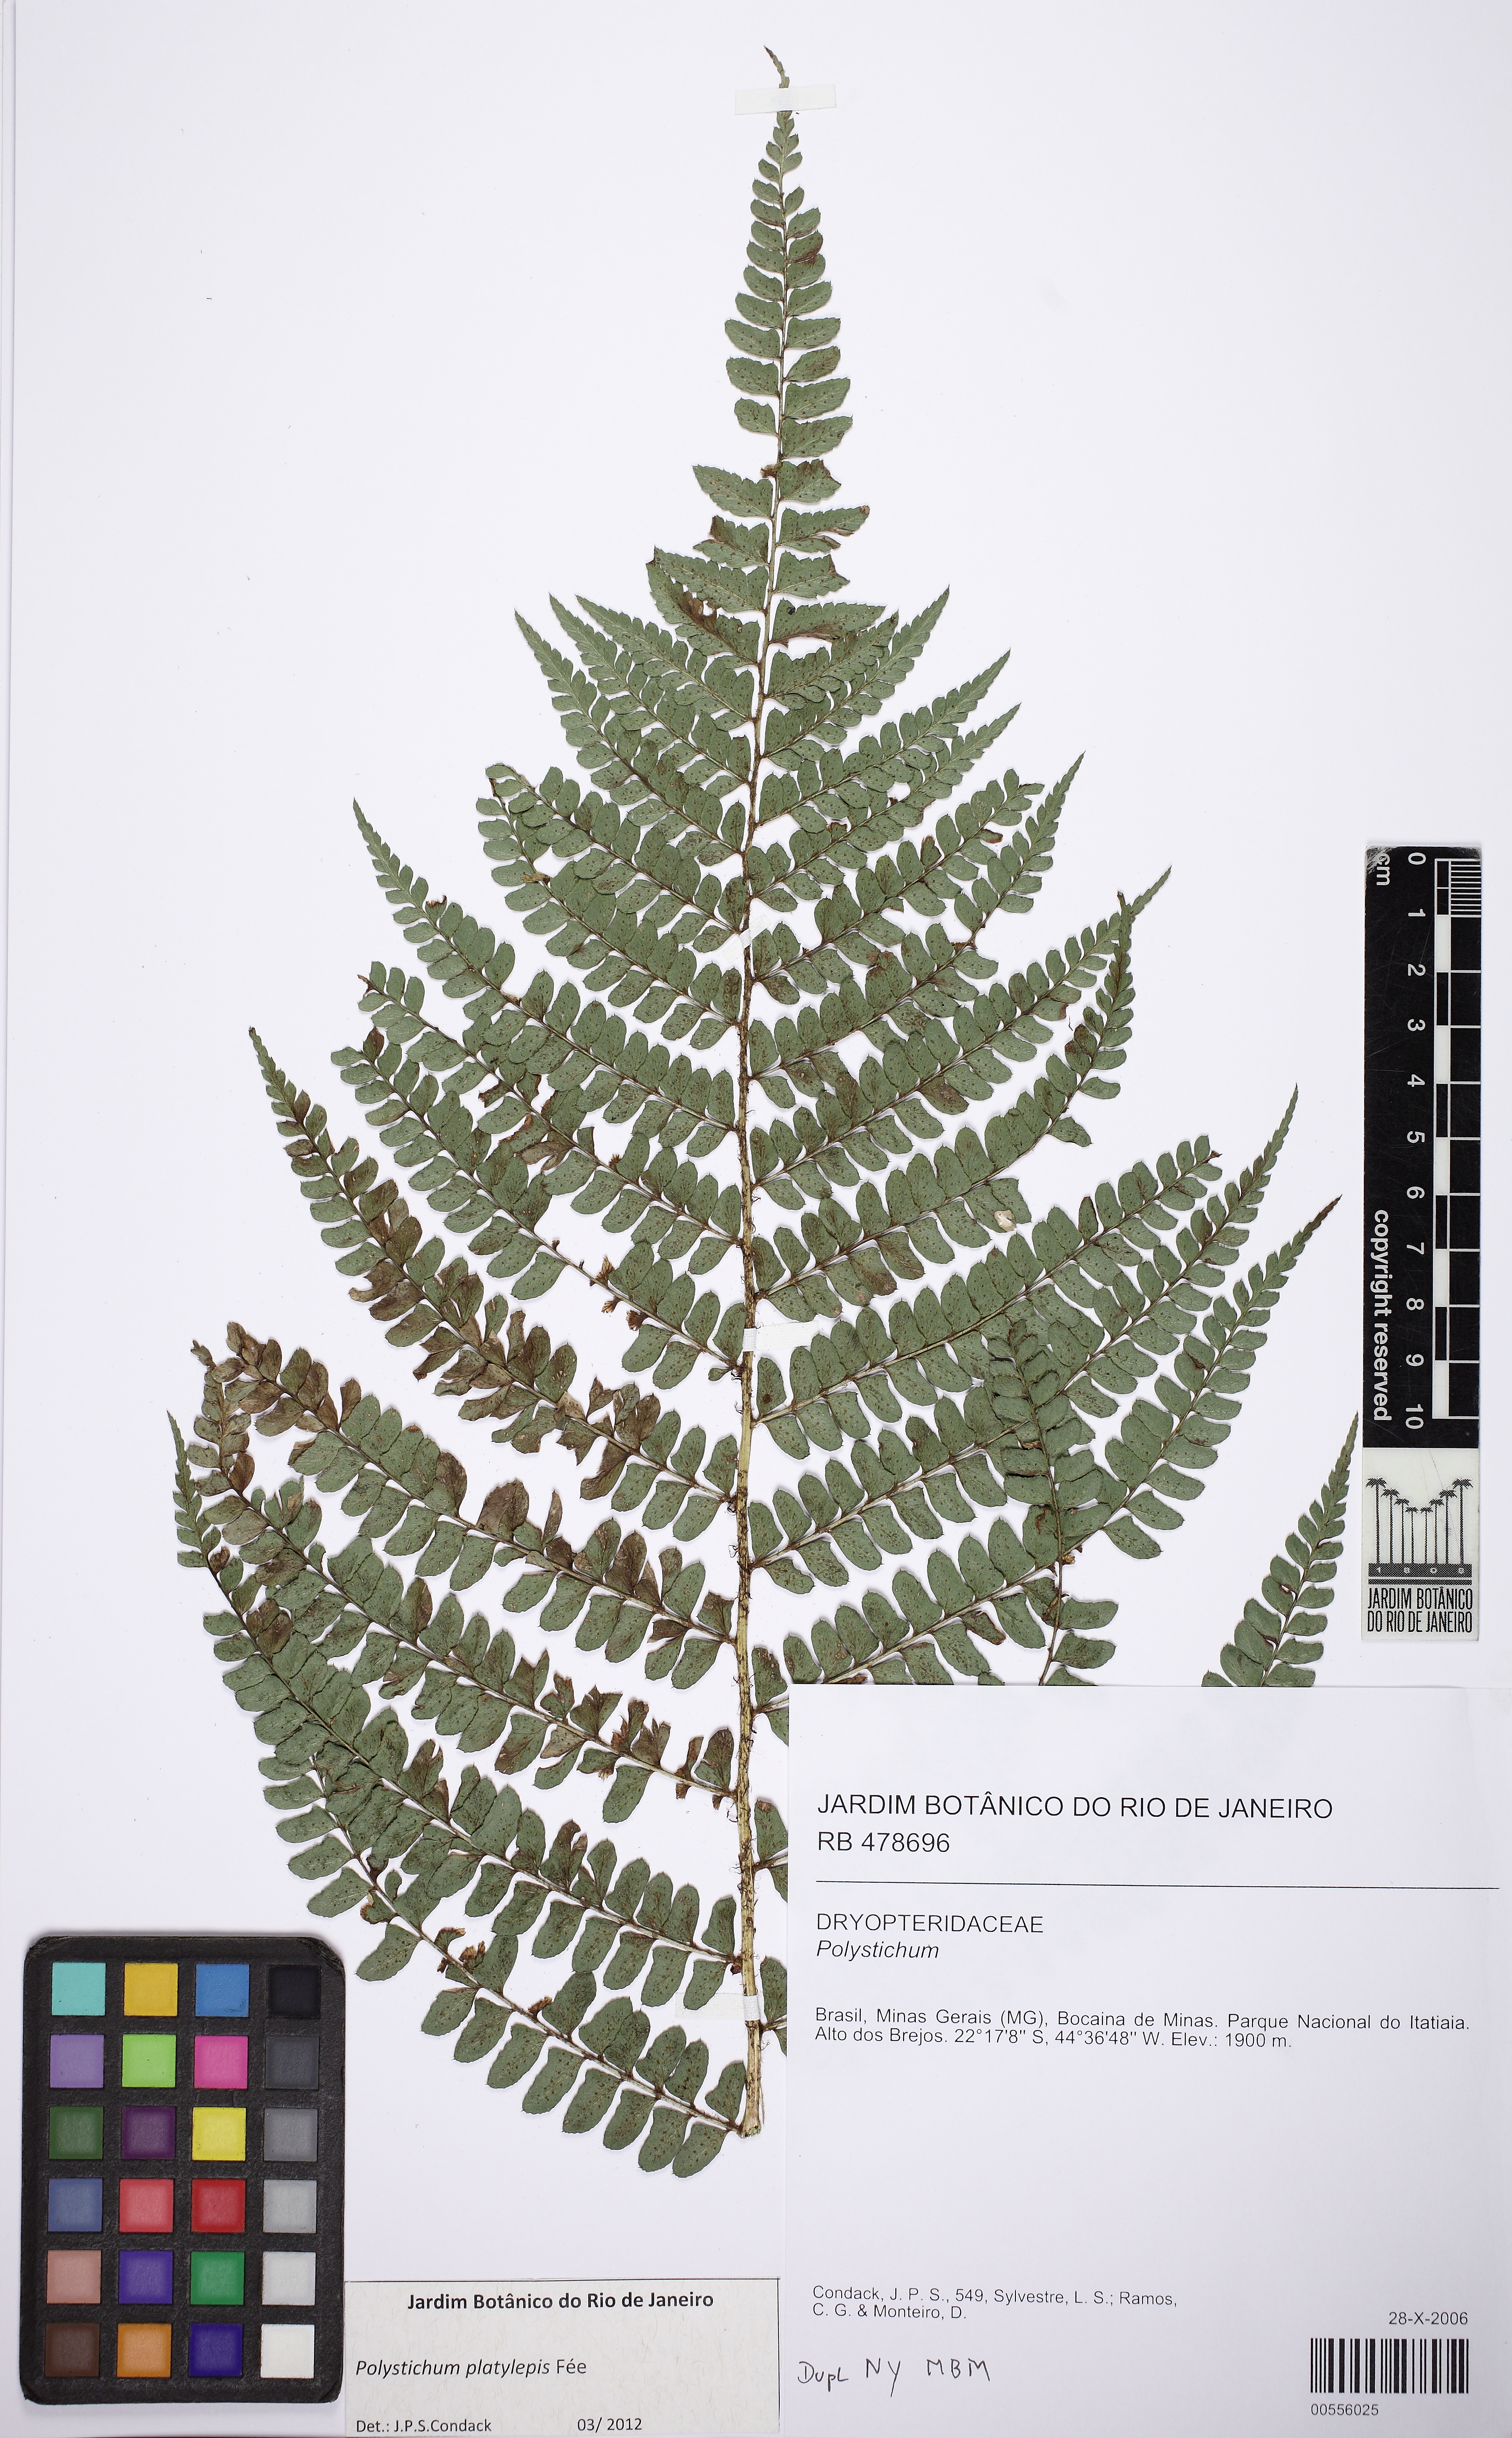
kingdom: Plantae
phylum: Tracheophyta
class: Polypodiopsida
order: Polypodiales
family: Dryopteridaceae
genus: Polystichum
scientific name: Polystichum platylepis
